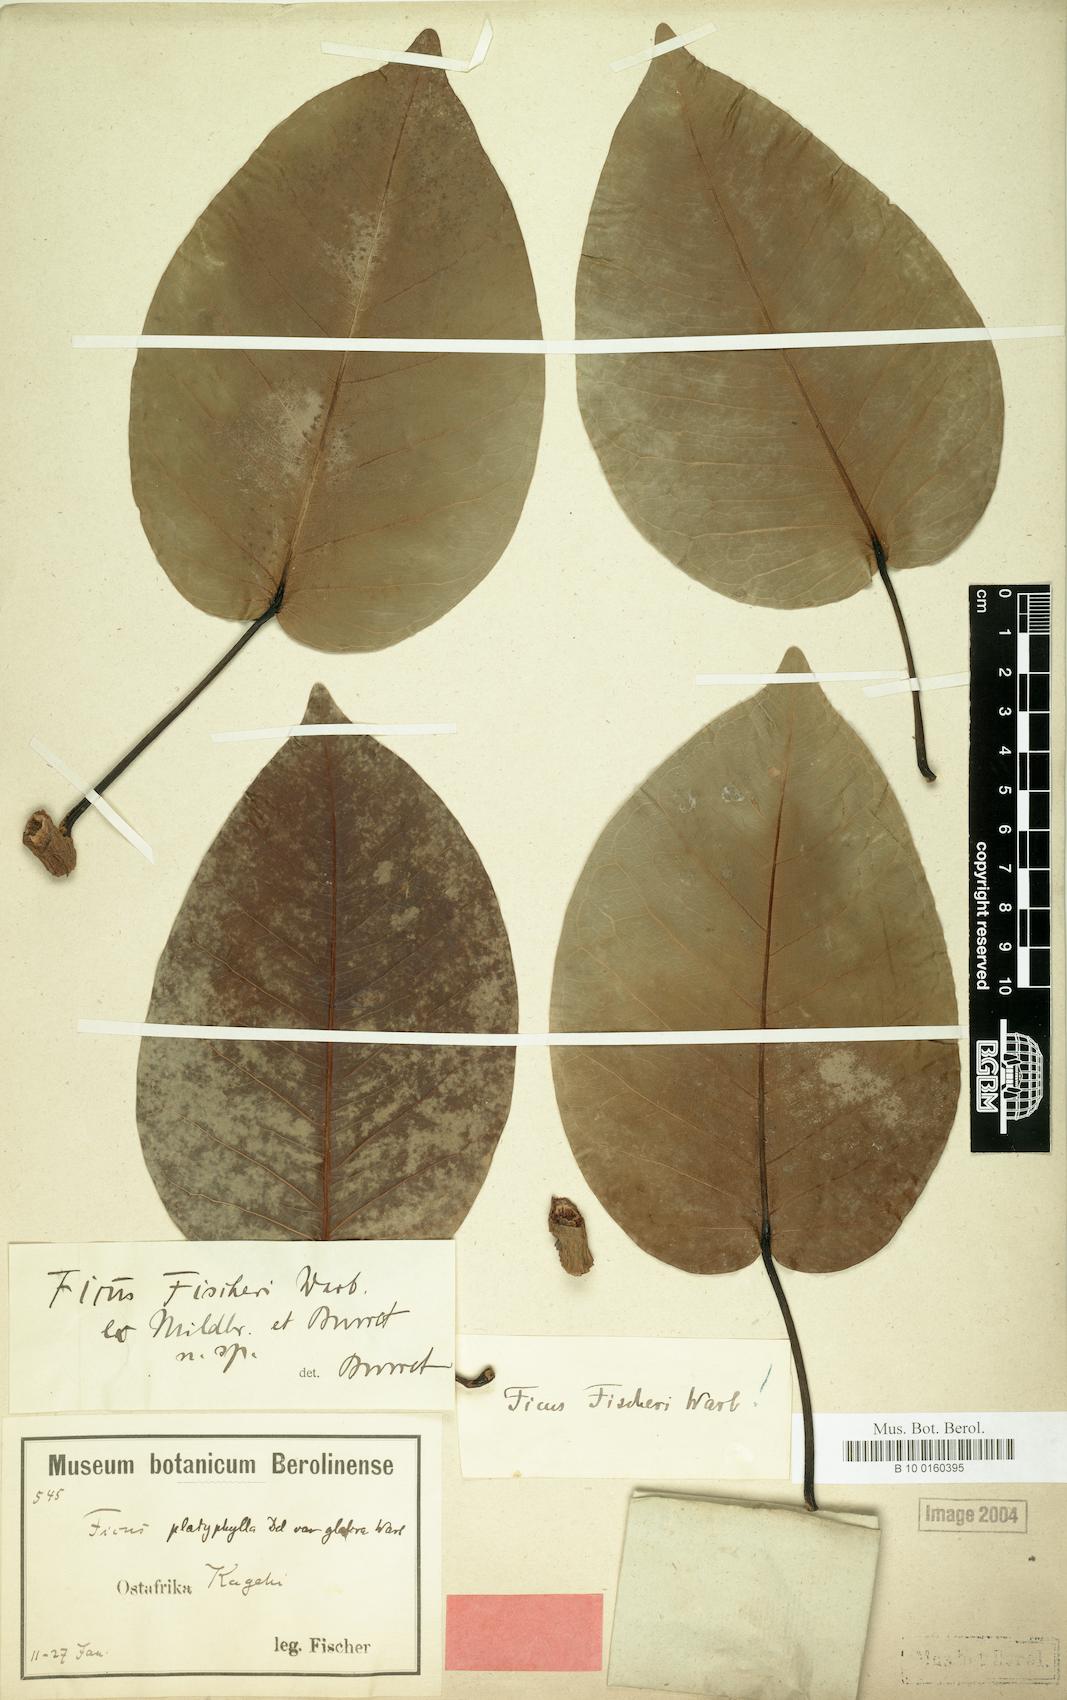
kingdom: Plantae
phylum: Tracheophyta
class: Magnoliopsida
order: Rosales
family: Moraceae
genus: Ficus
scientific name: Ficus fischeri
